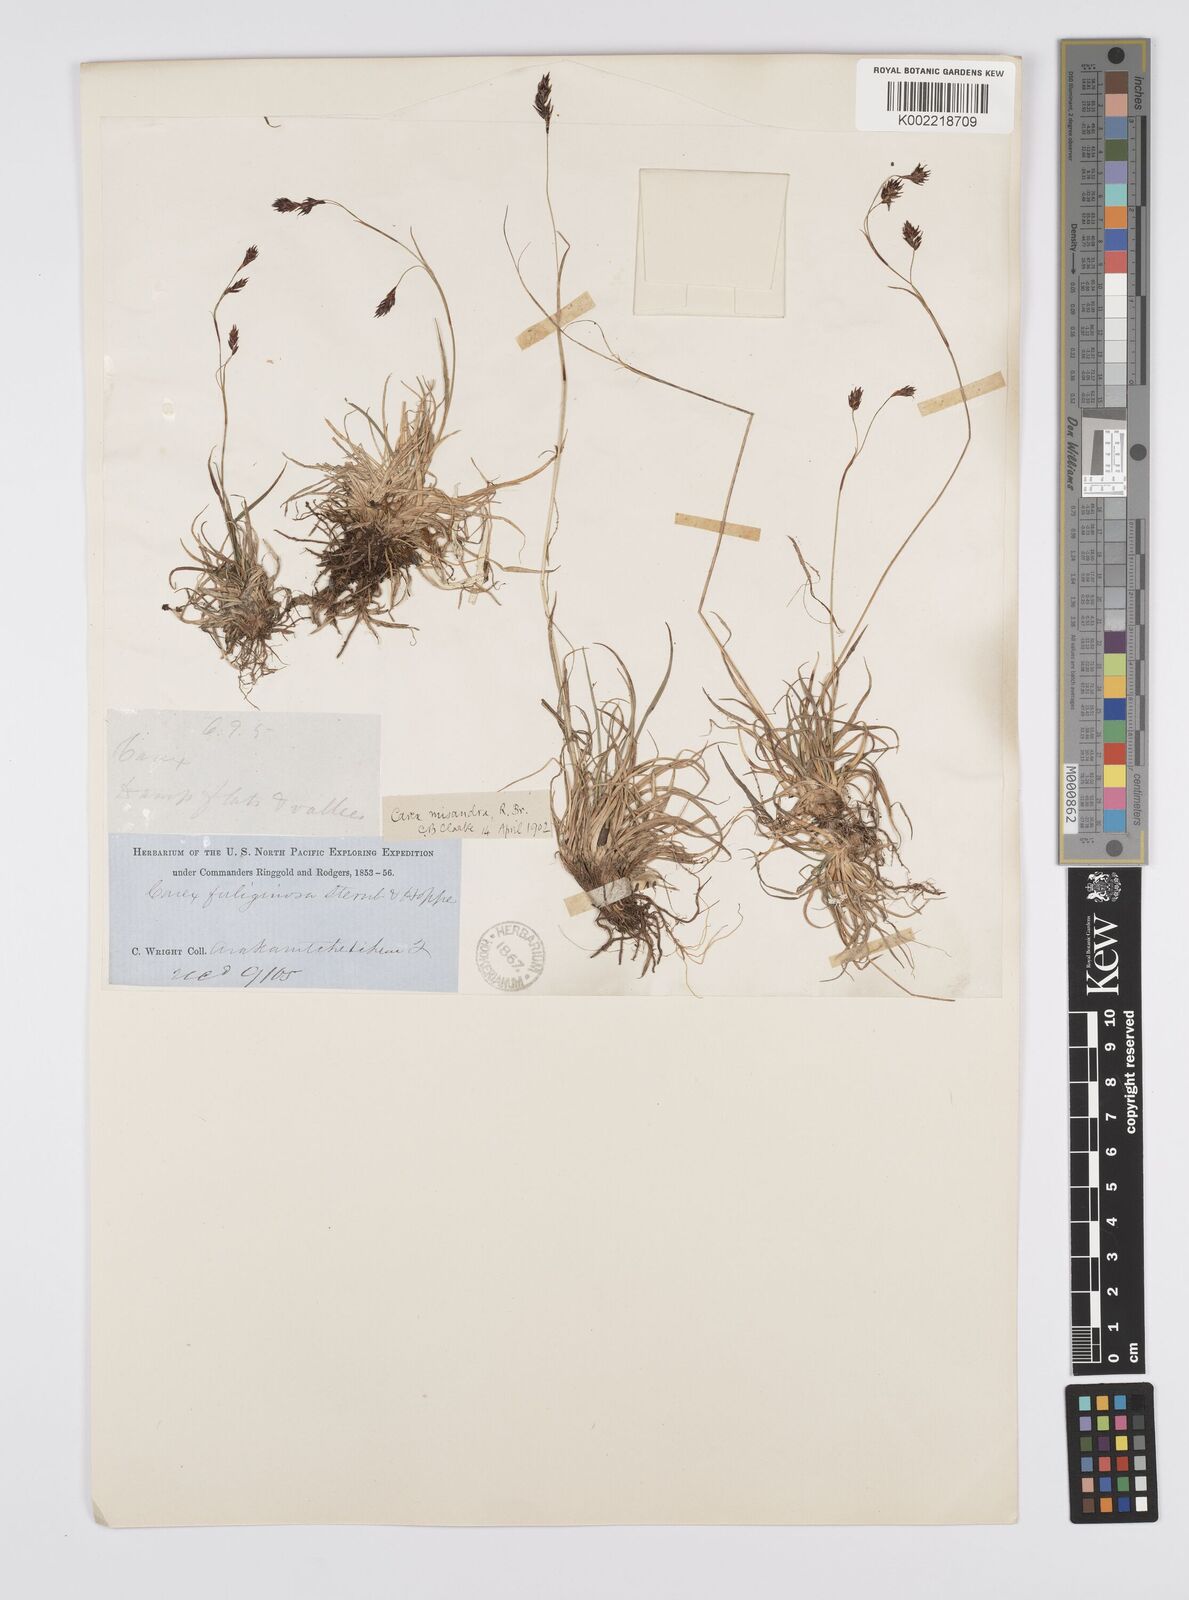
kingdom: Plantae
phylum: Tracheophyta
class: Liliopsida
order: Poales
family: Cyperaceae
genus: Carex
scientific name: Carex fuliginosa
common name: Few-flowered sedge
